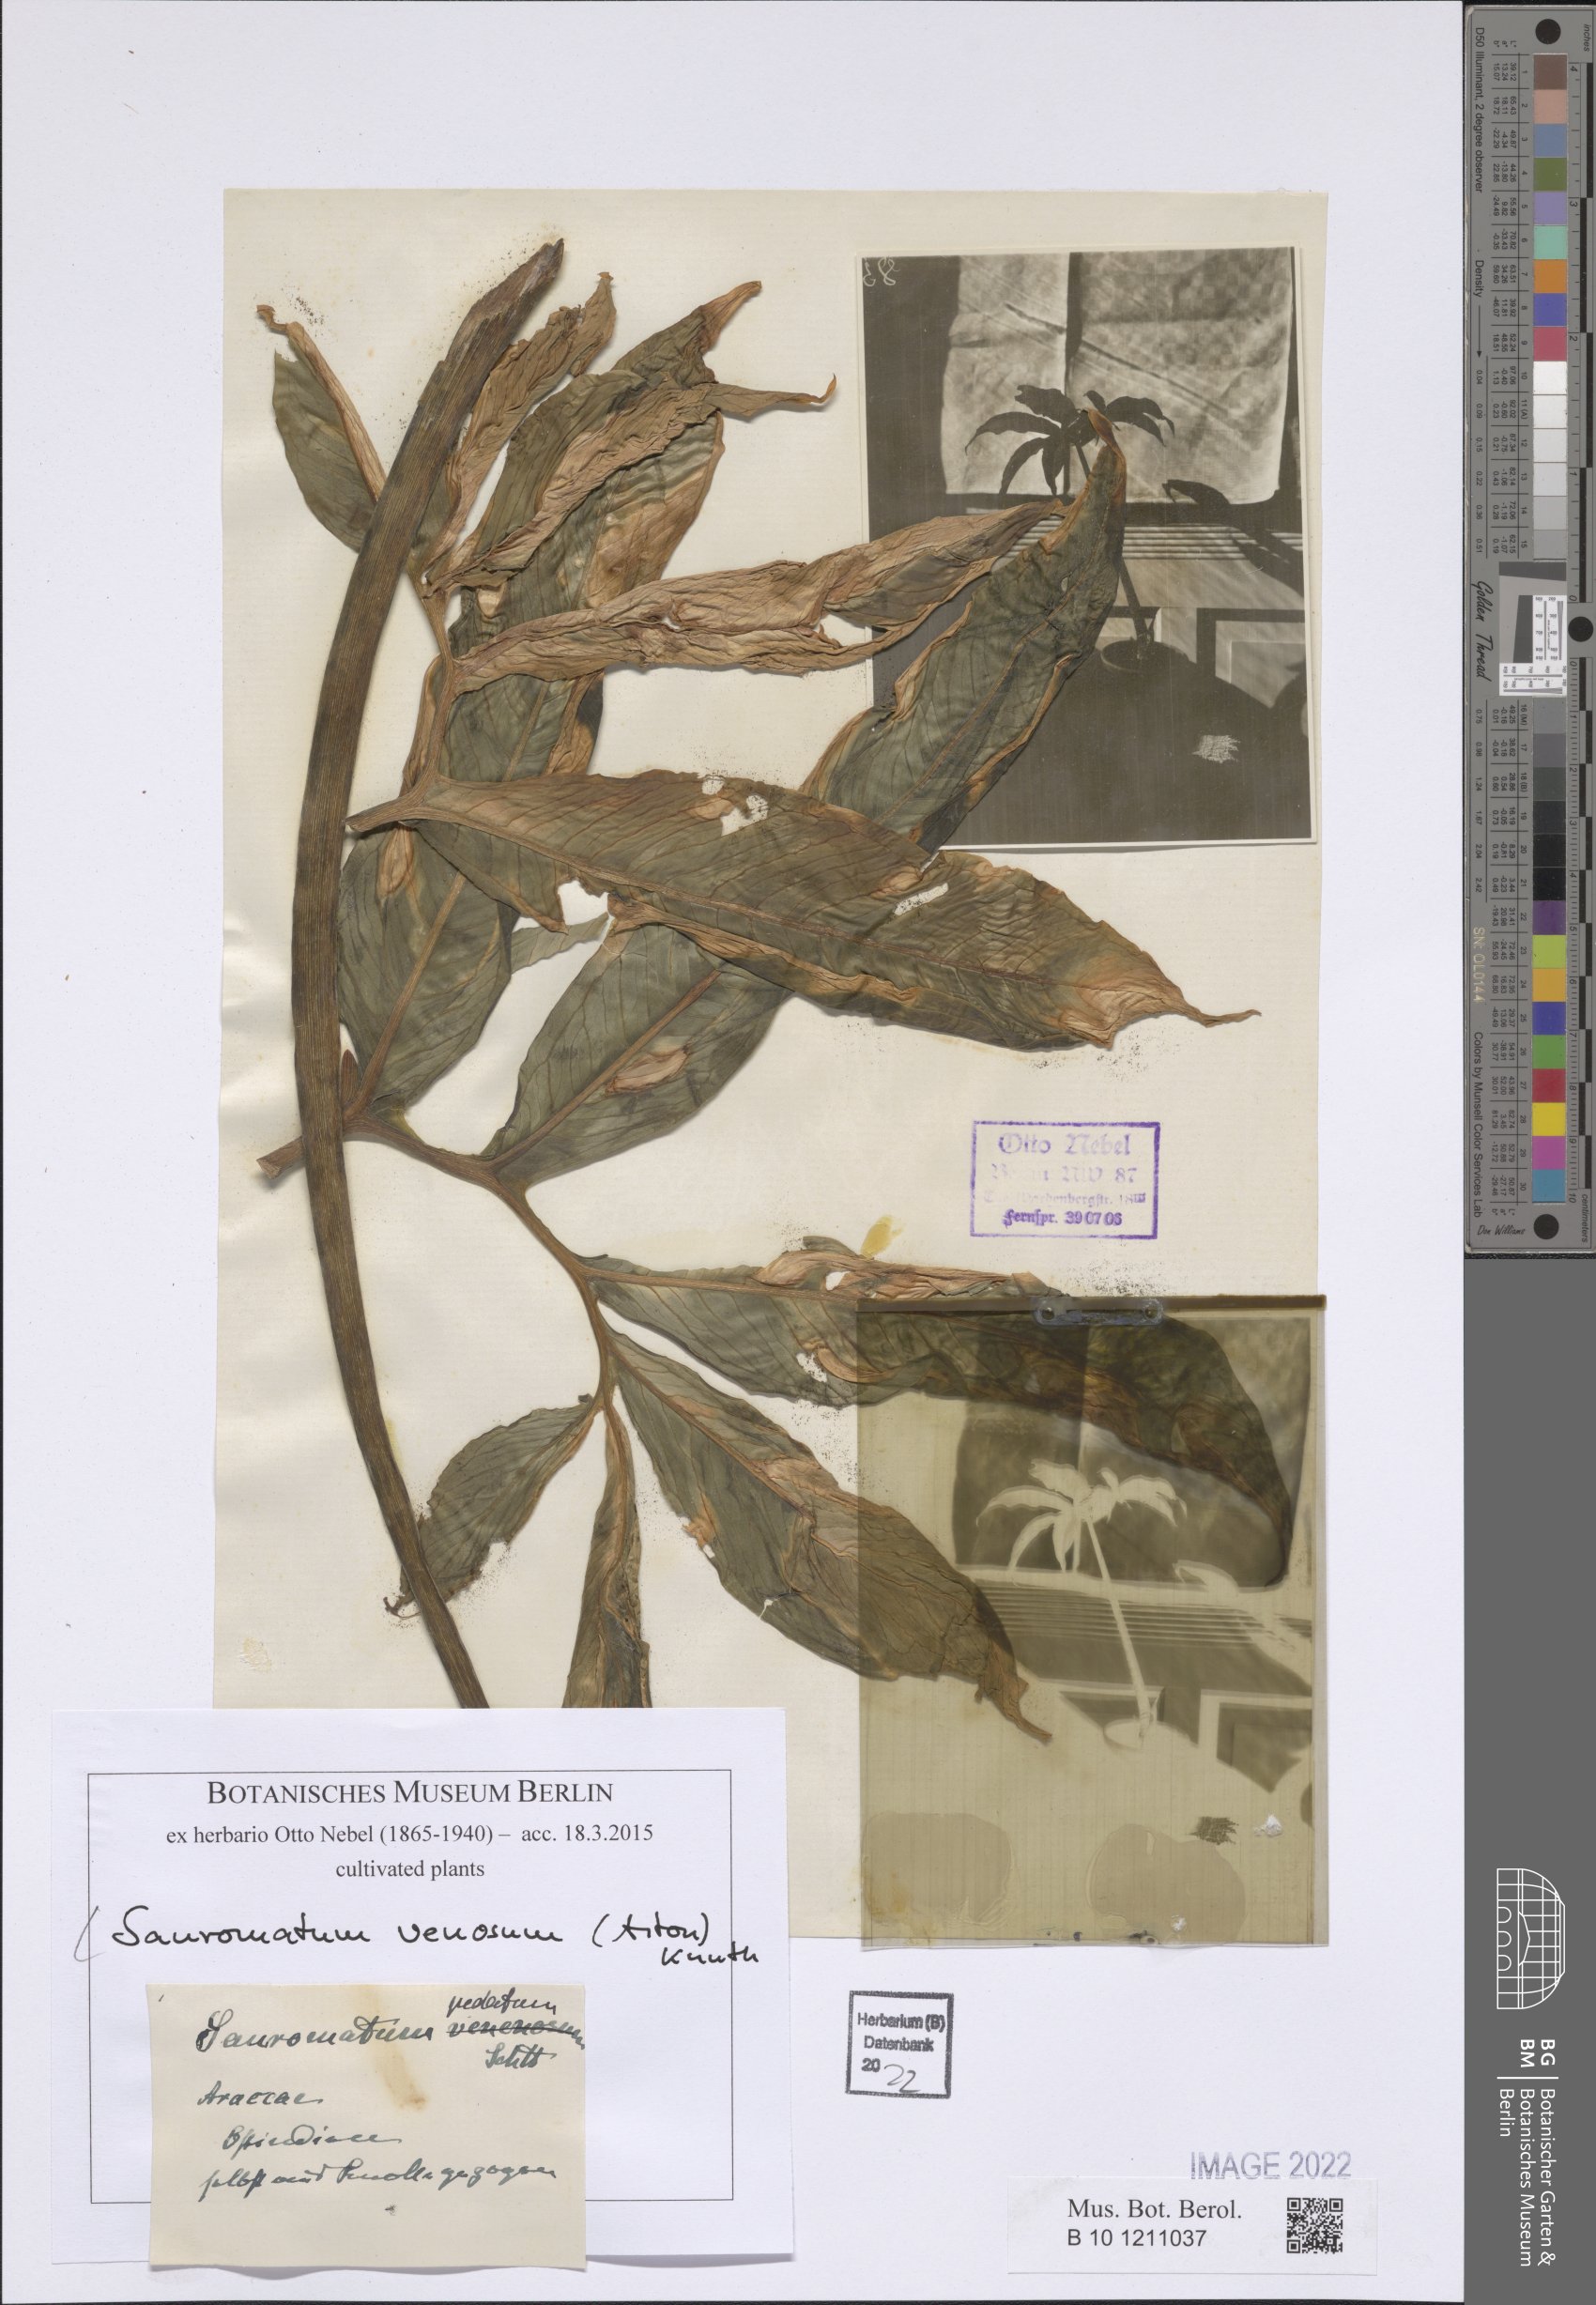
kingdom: Plantae
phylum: Tracheophyta
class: Liliopsida
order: Alismatales
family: Araceae
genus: Sauromatum
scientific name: Sauromatum venosum
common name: Voodoo lily
